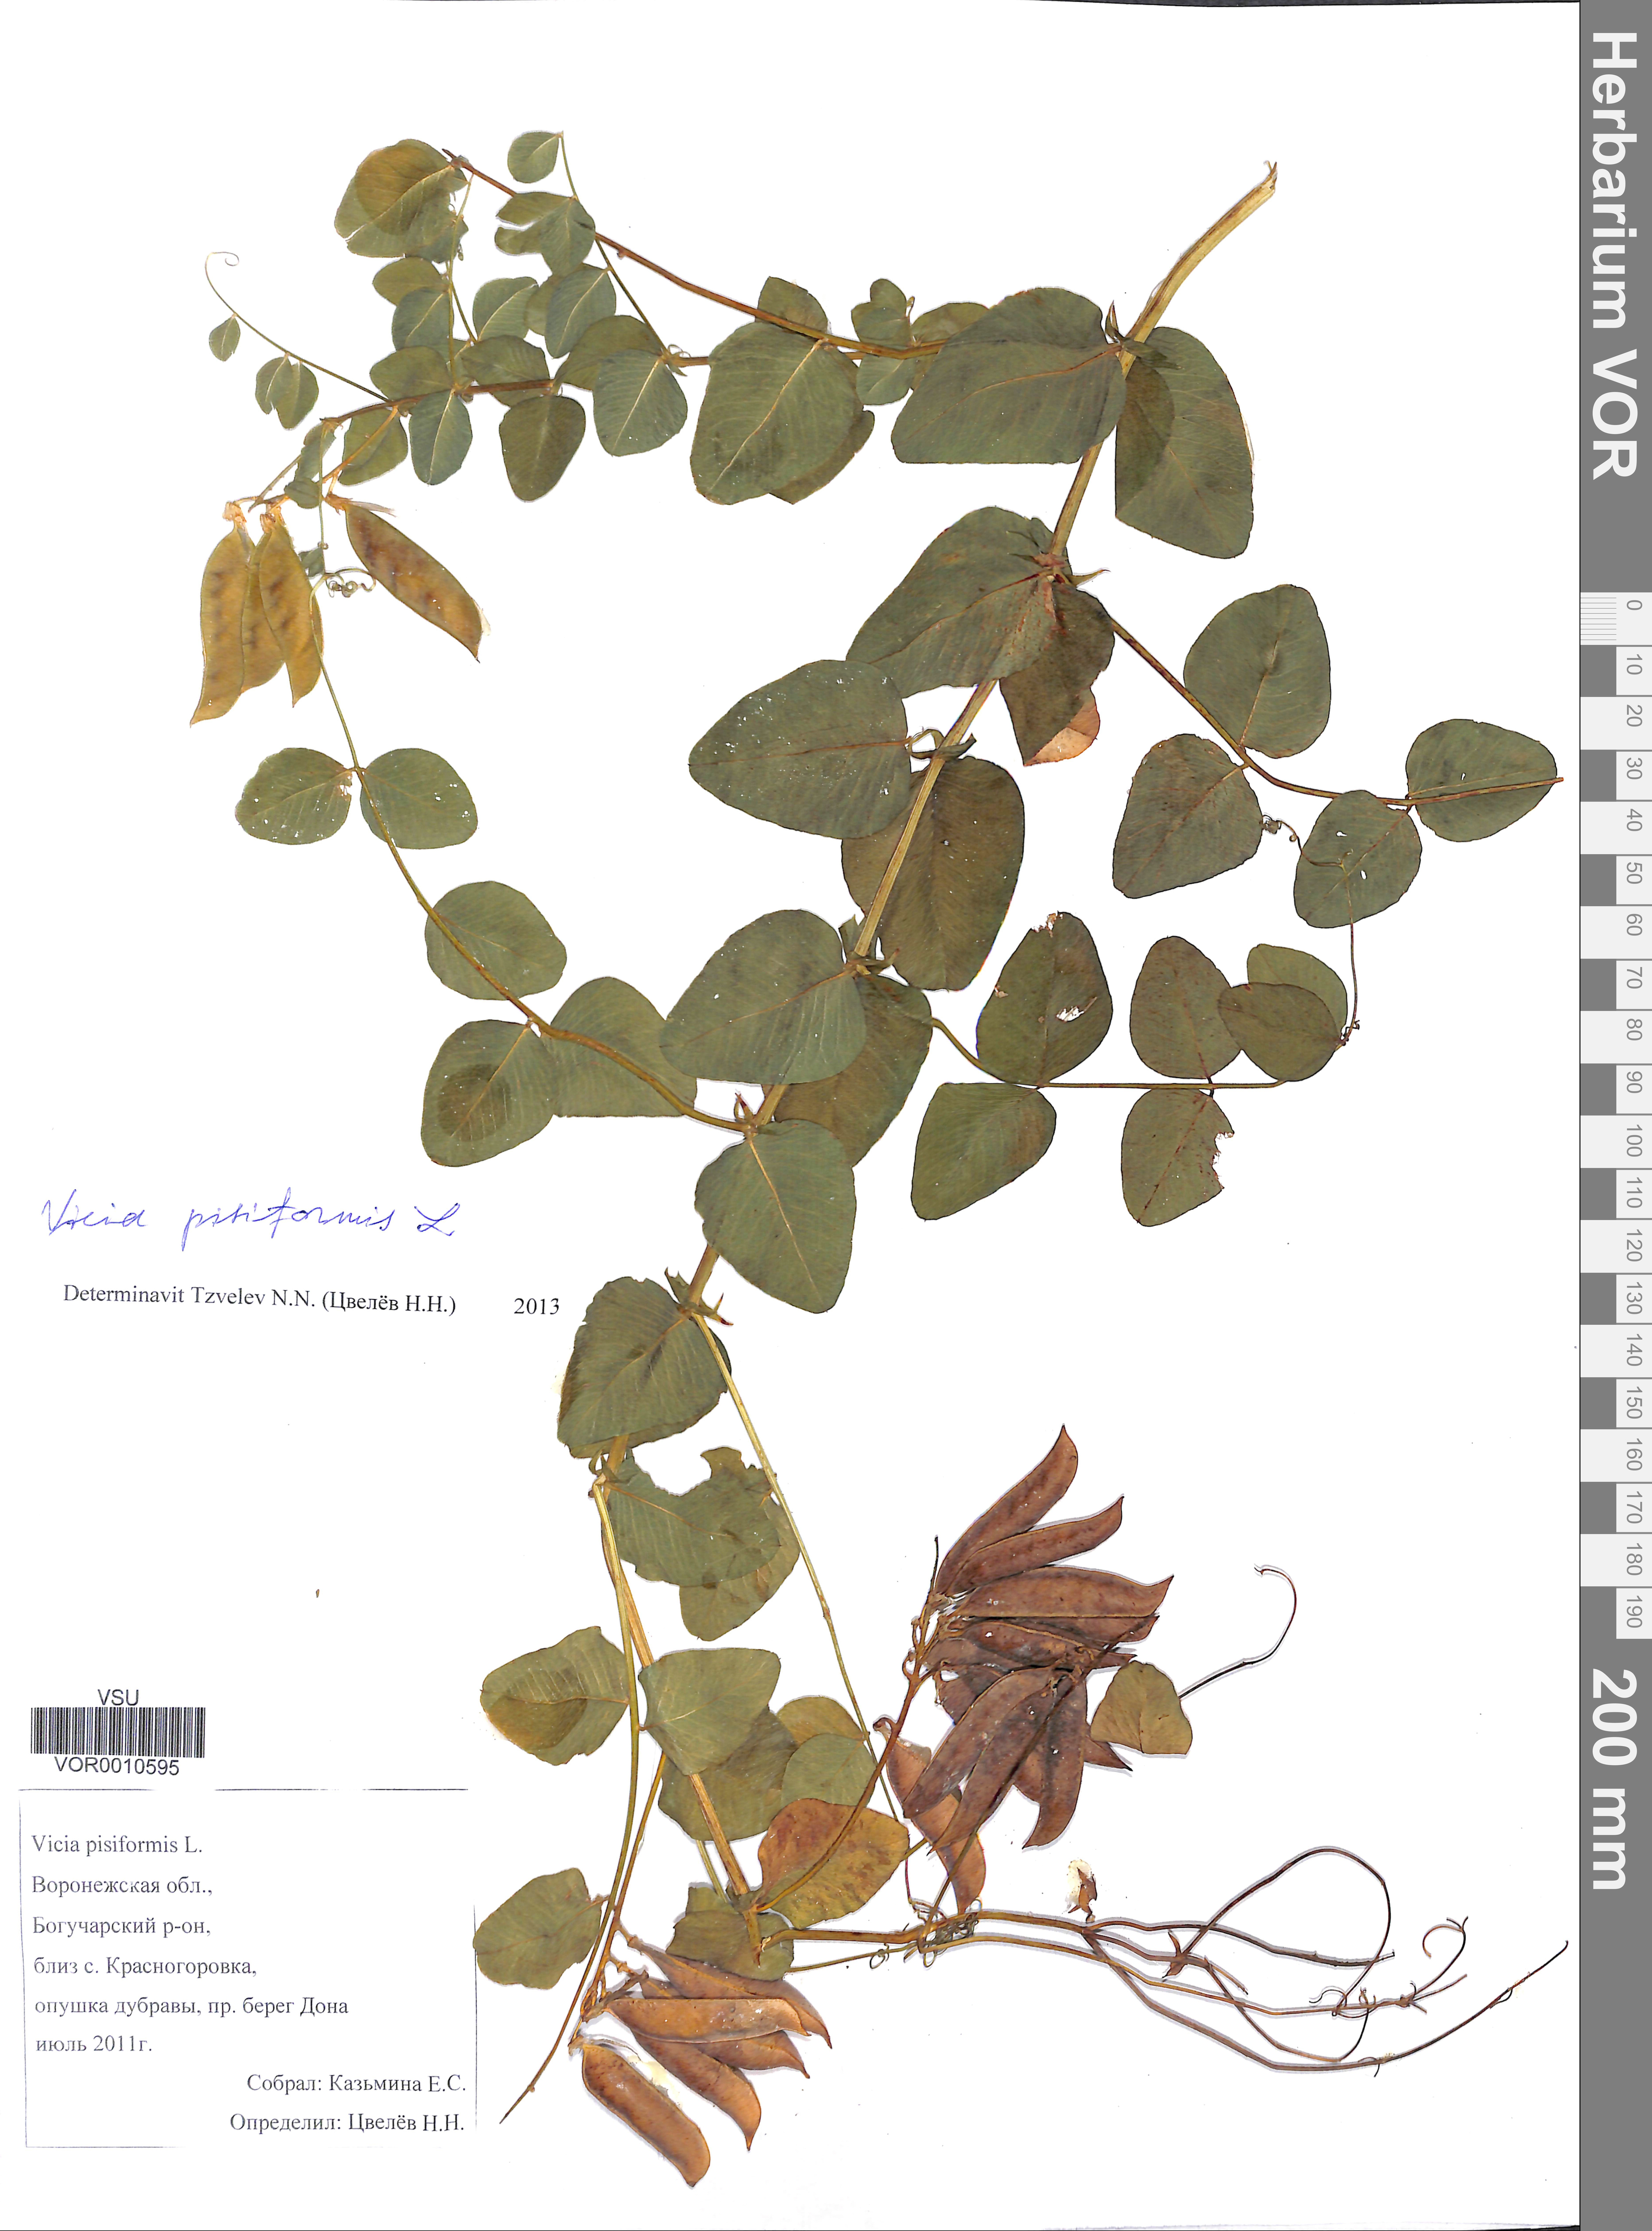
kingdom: Plantae
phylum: Tracheophyta
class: Magnoliopsida
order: Fabales
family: Fabaceae
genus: Vicia
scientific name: Vicia pisiformis
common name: Pale-flower vetch
